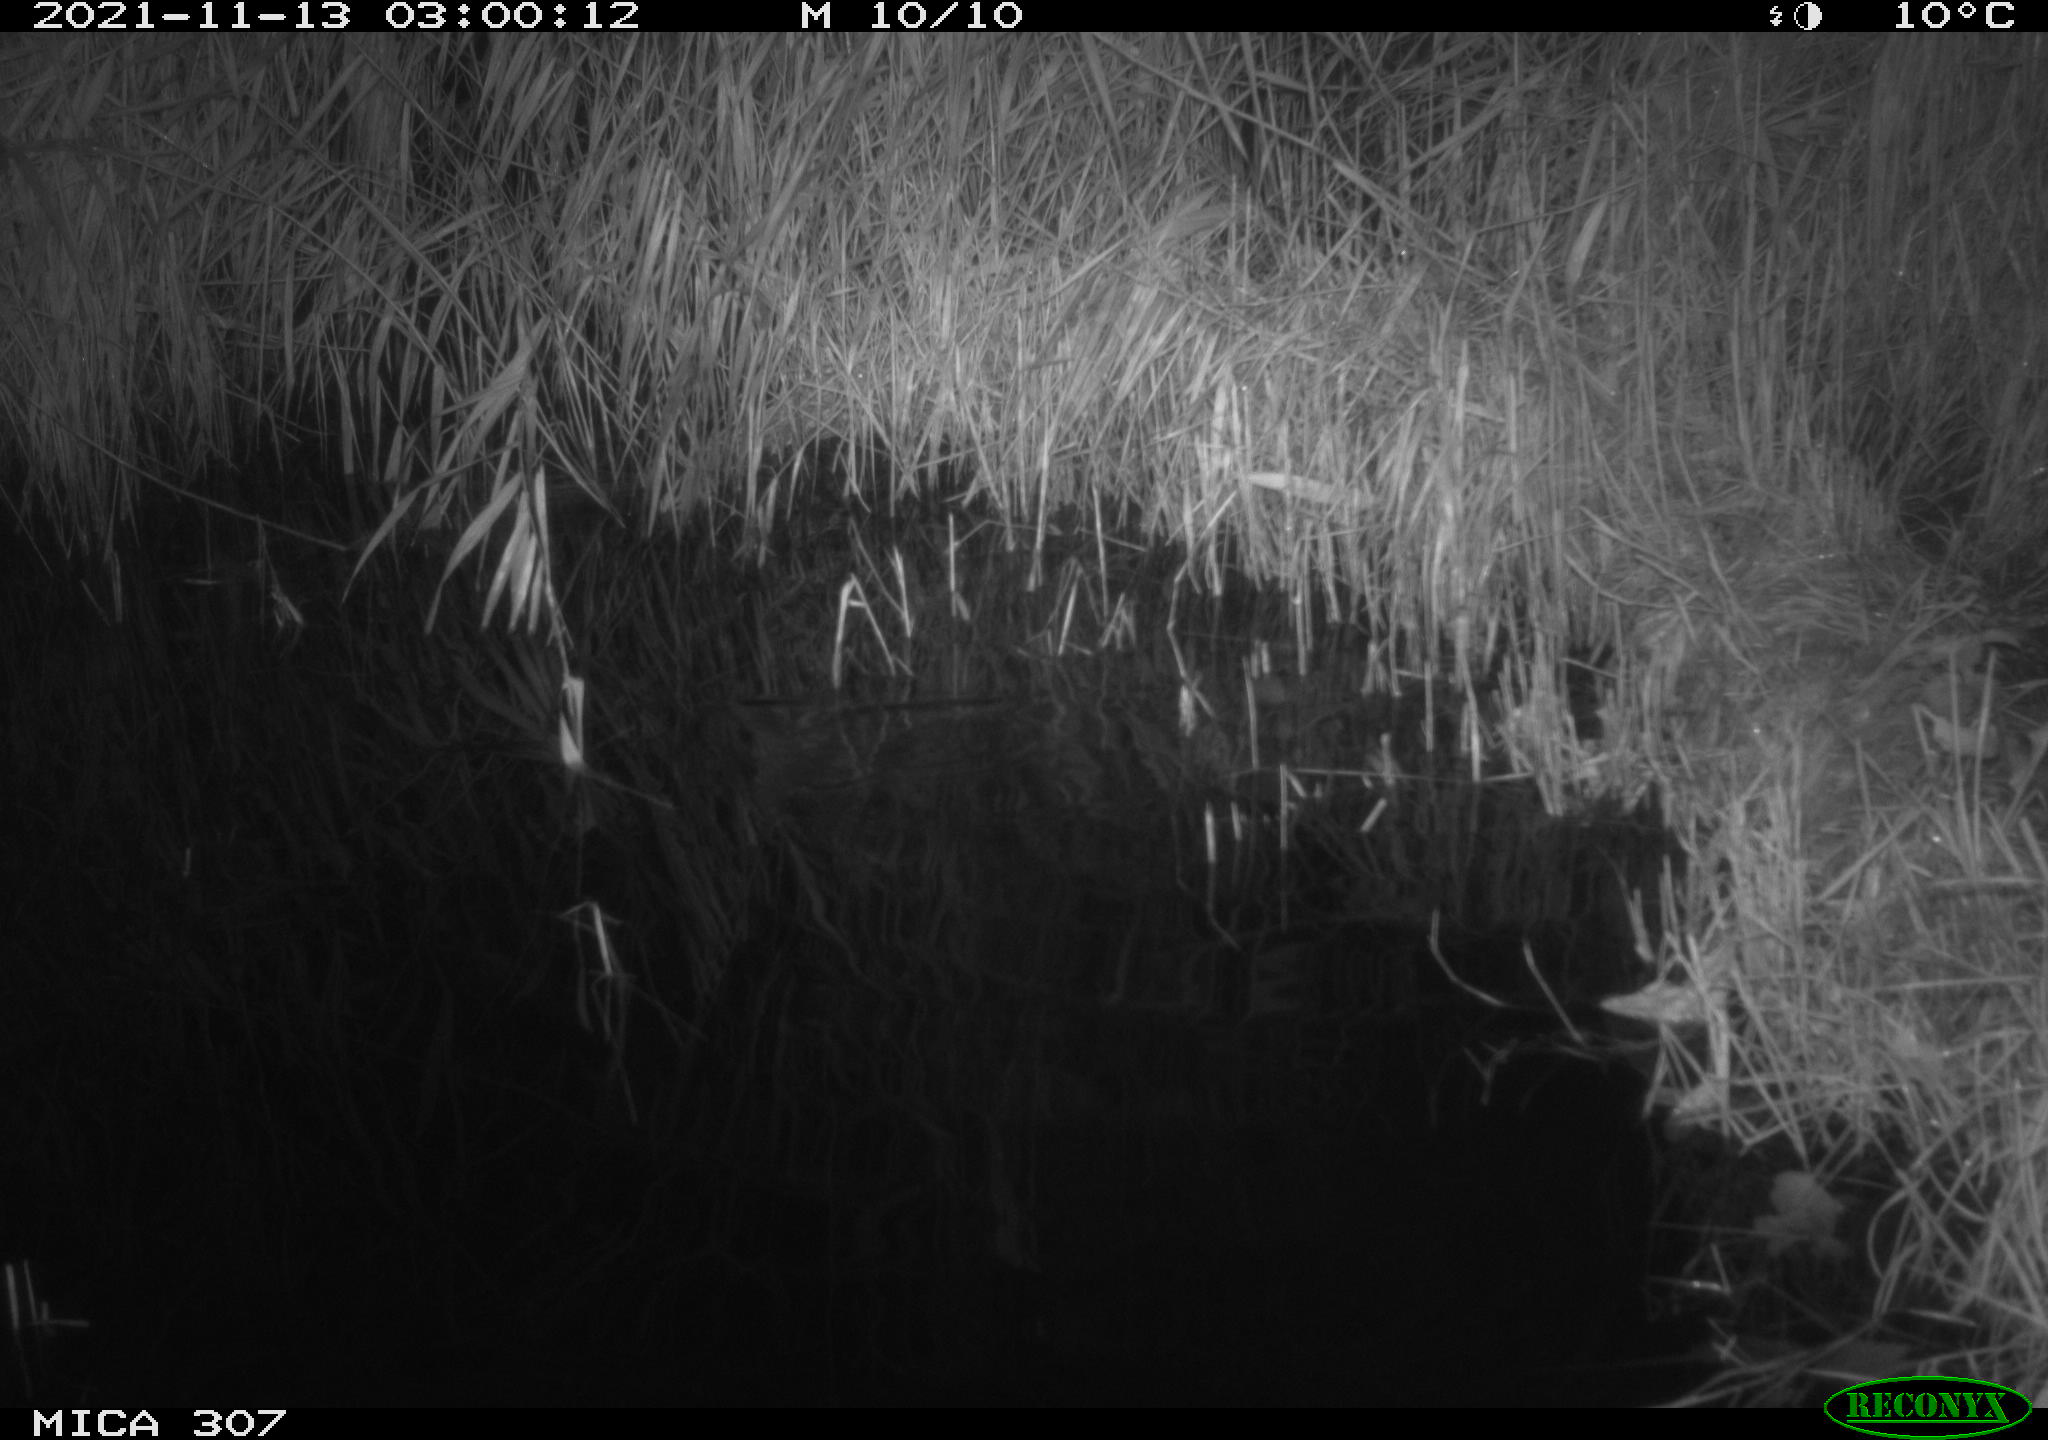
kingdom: Animalia
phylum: Chordata
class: Mammalia
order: Rodentia
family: Muridae
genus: Rattus
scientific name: Rattus norvegicus
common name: Brown rat
